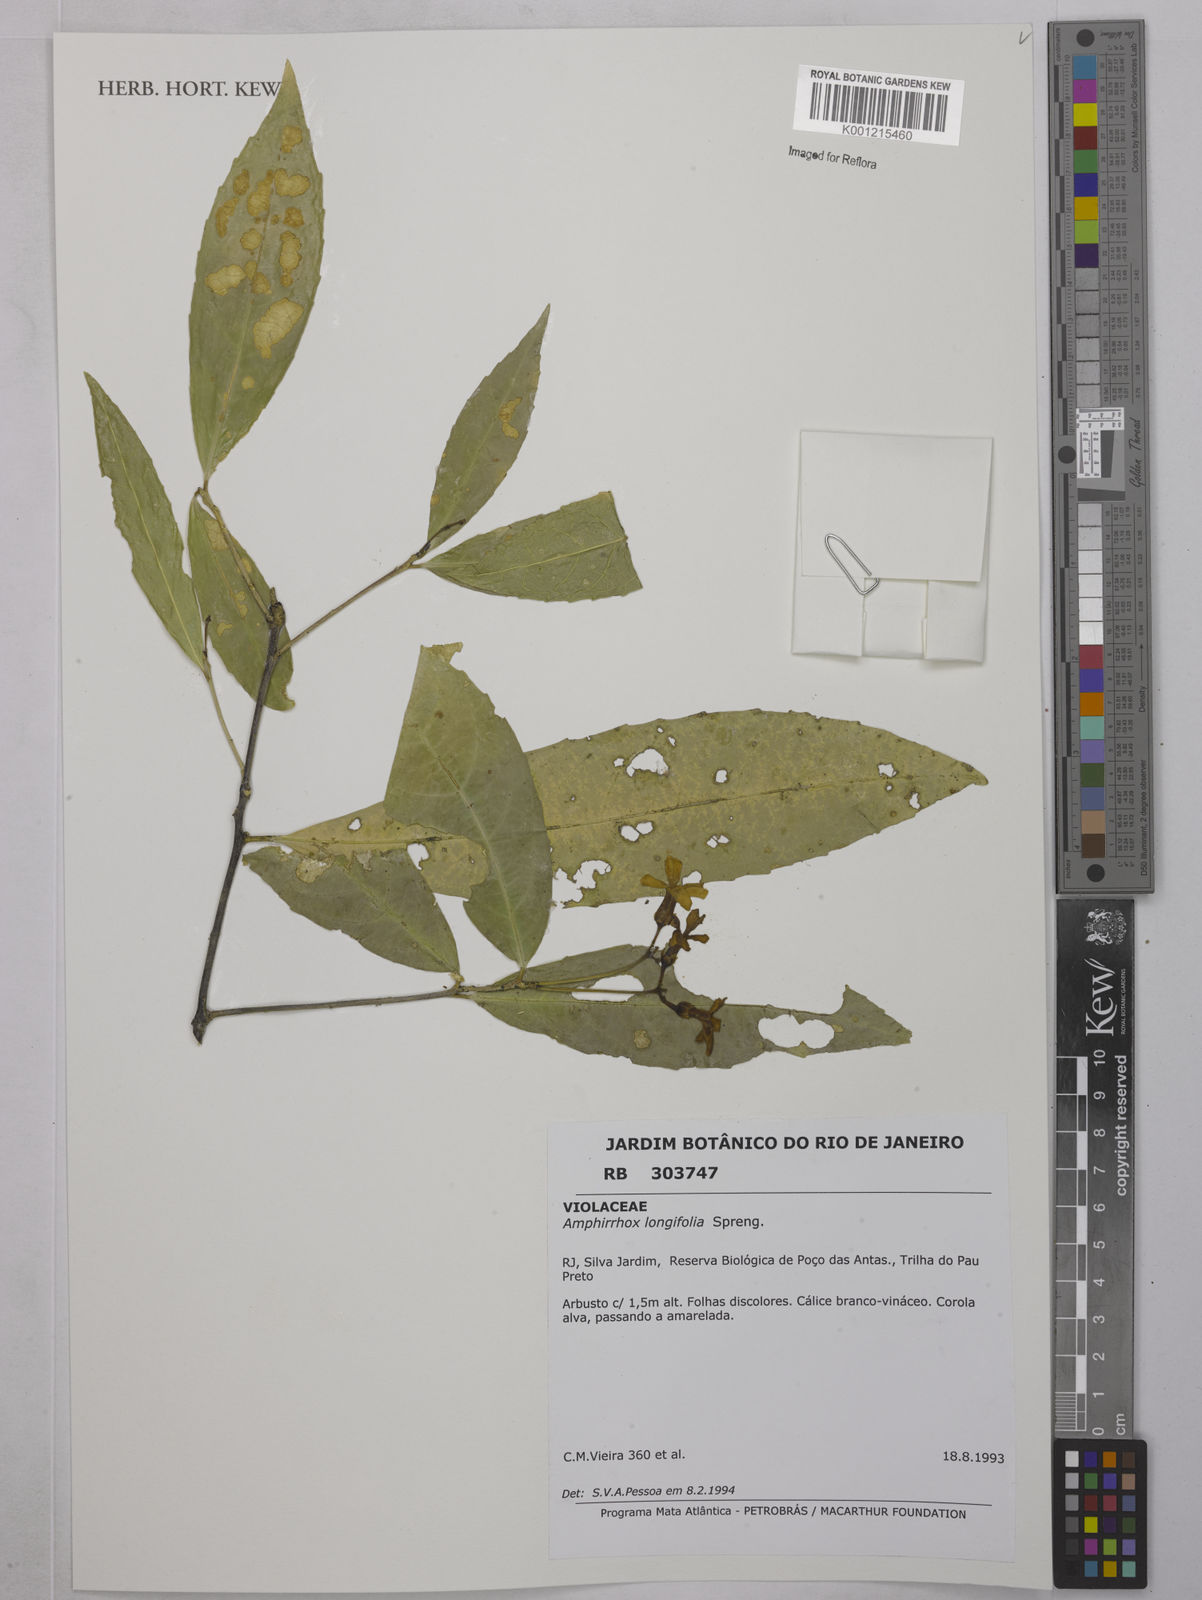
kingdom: Plantae
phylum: Tracheophyta
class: Magnoliopsida
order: Malpighiales
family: Violaceae
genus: Amphirrhox
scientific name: Amphirrhox longifolia
